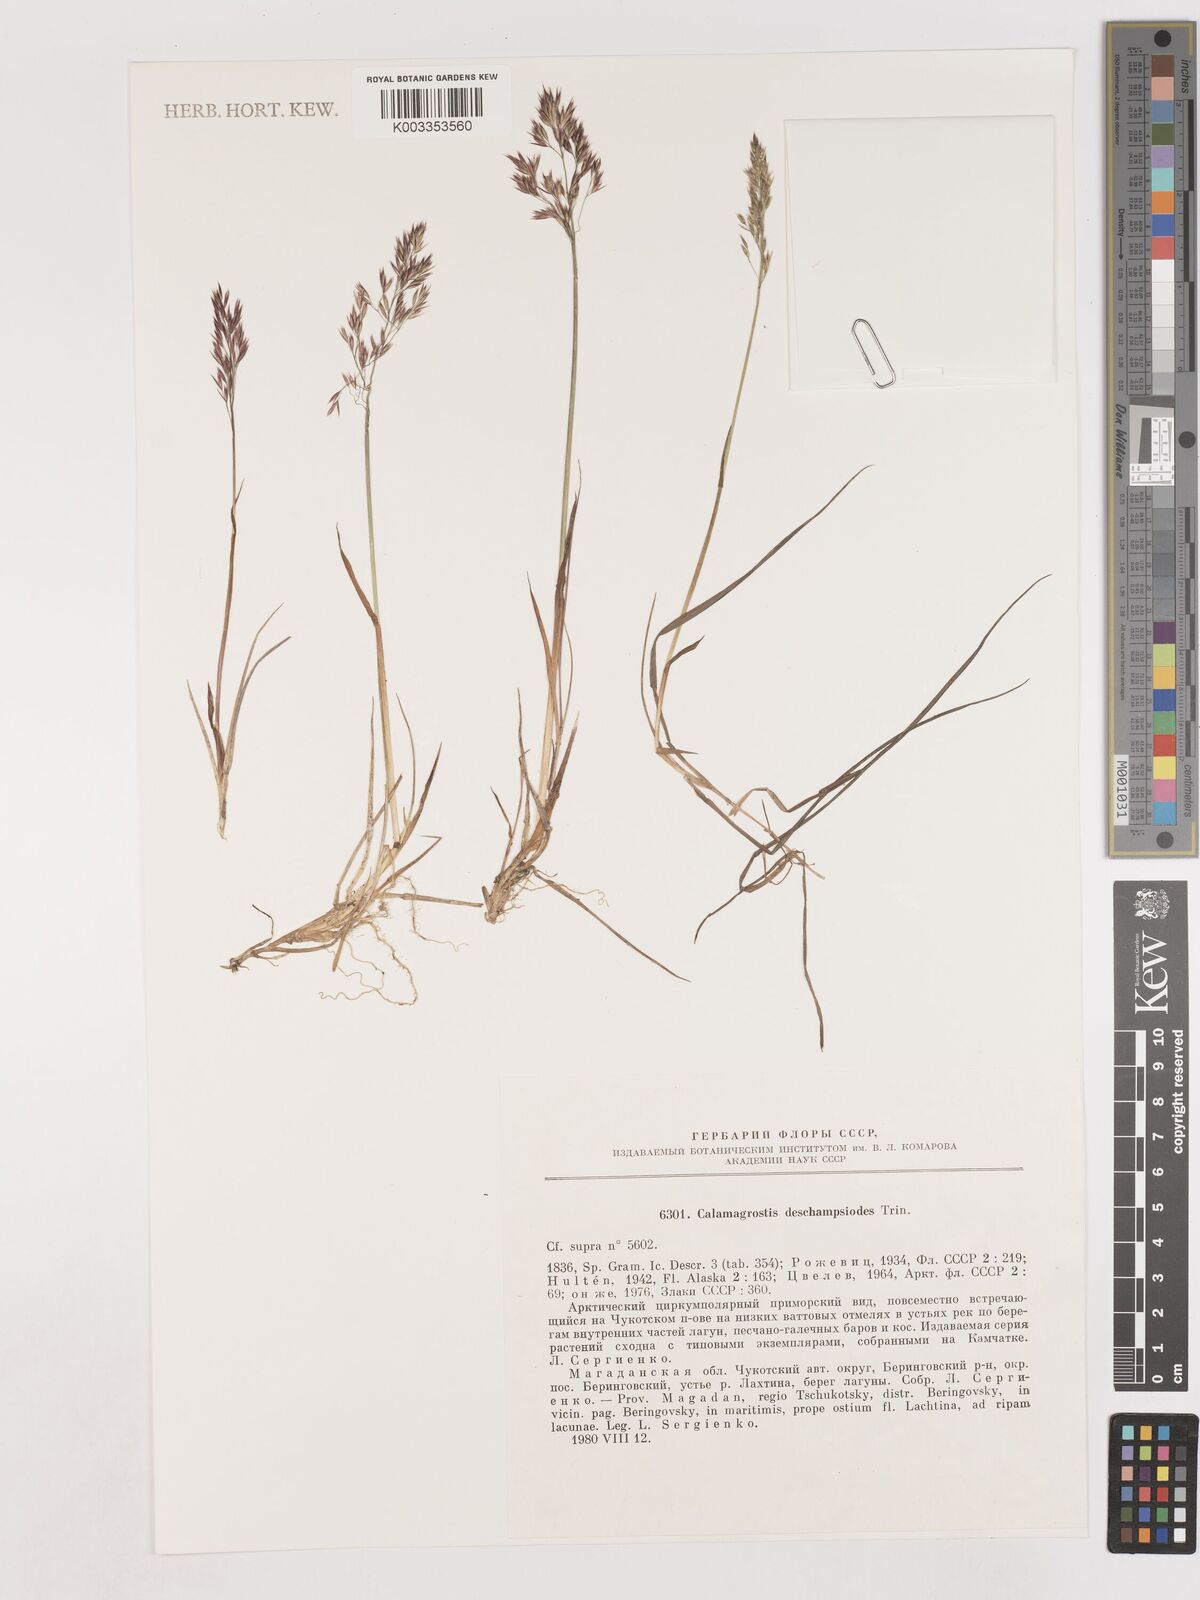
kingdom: Plantae
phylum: Tracheophyta
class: Liliopsida
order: Poales
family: Poaceae
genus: Calamagrostis
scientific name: Calamagrostis deschampsioides
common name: Circumpolar reedgrass
